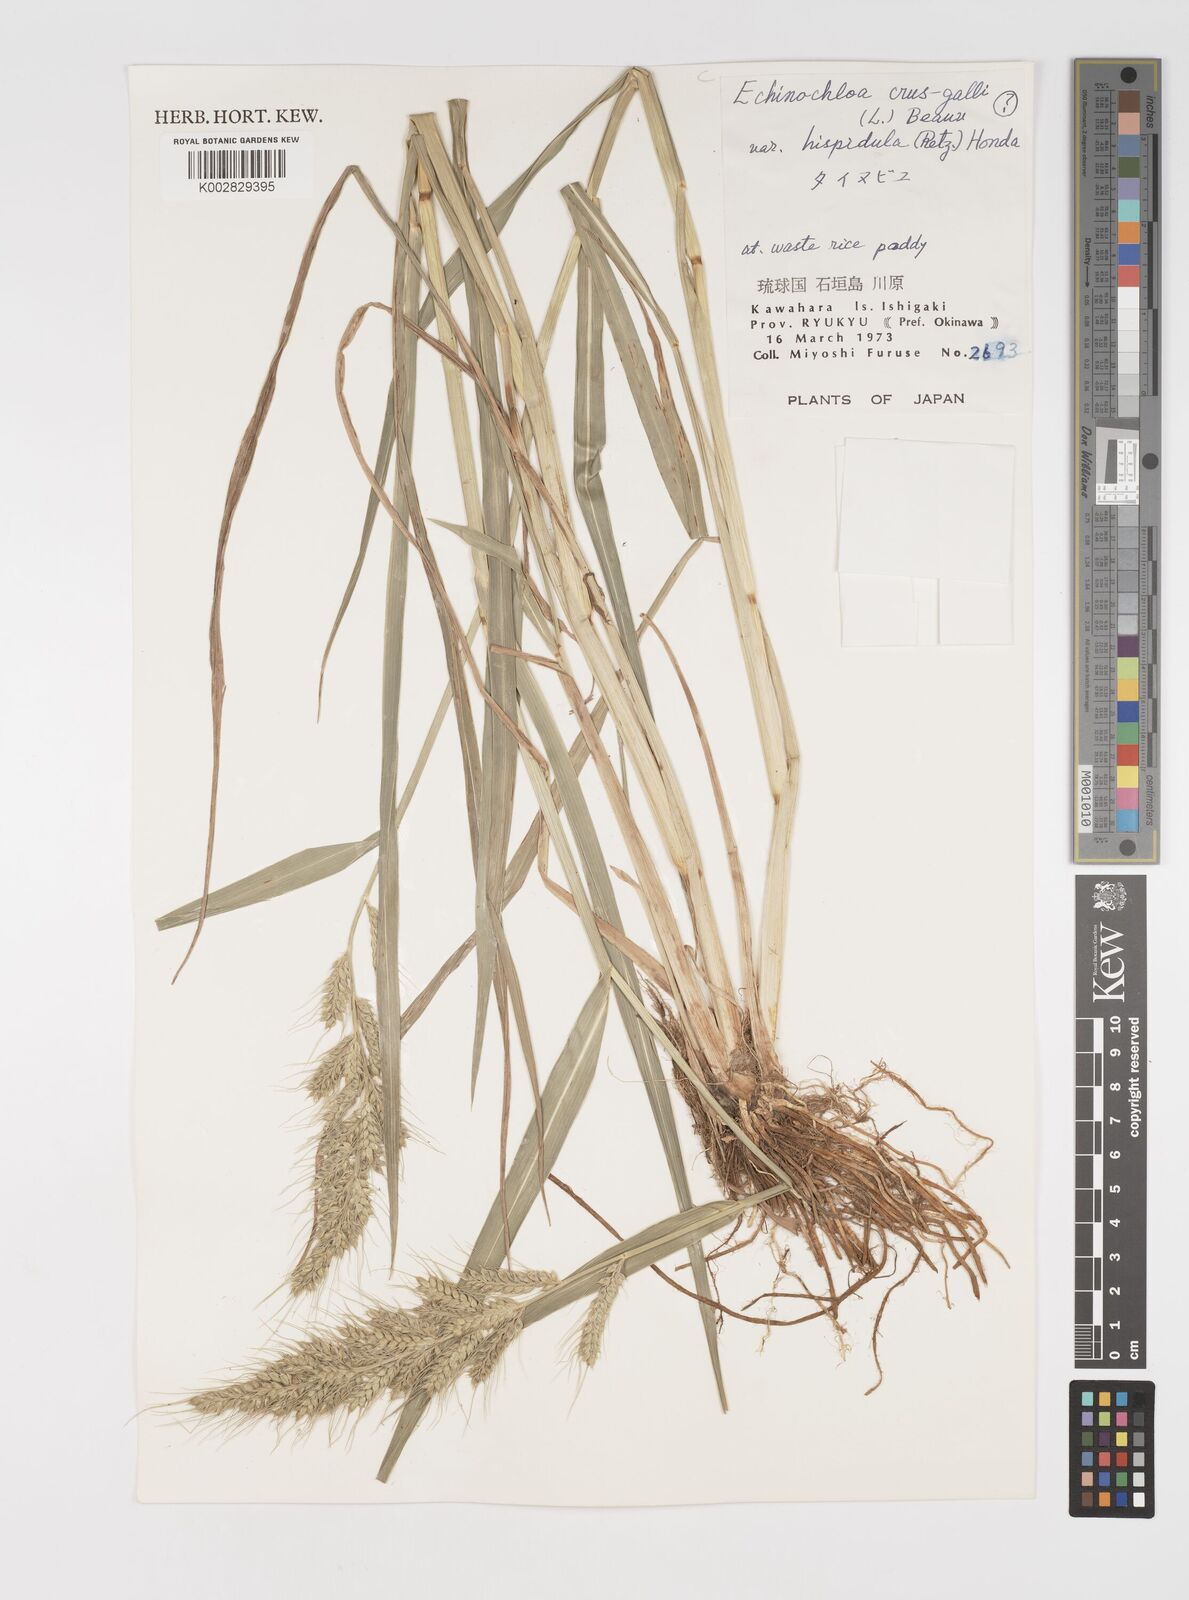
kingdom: Plantae
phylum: Tracheophyta
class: Liliopsida
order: Poales
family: Poaceae
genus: Echinochloa
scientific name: Echinochloa crus-galli
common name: Cockspur
